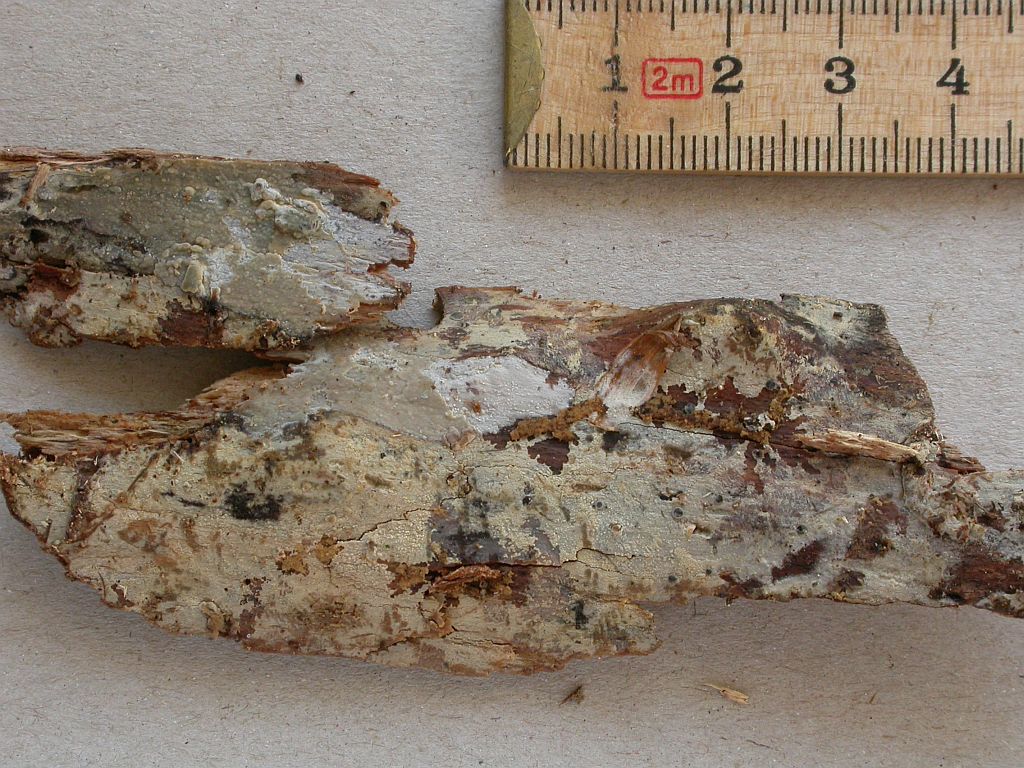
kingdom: Fungi
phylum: Basidiomycota
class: Agaricomycetes
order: Polyporales
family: Hyphodermataceae
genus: Kneiffia
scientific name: Kneiffia subalutacea
